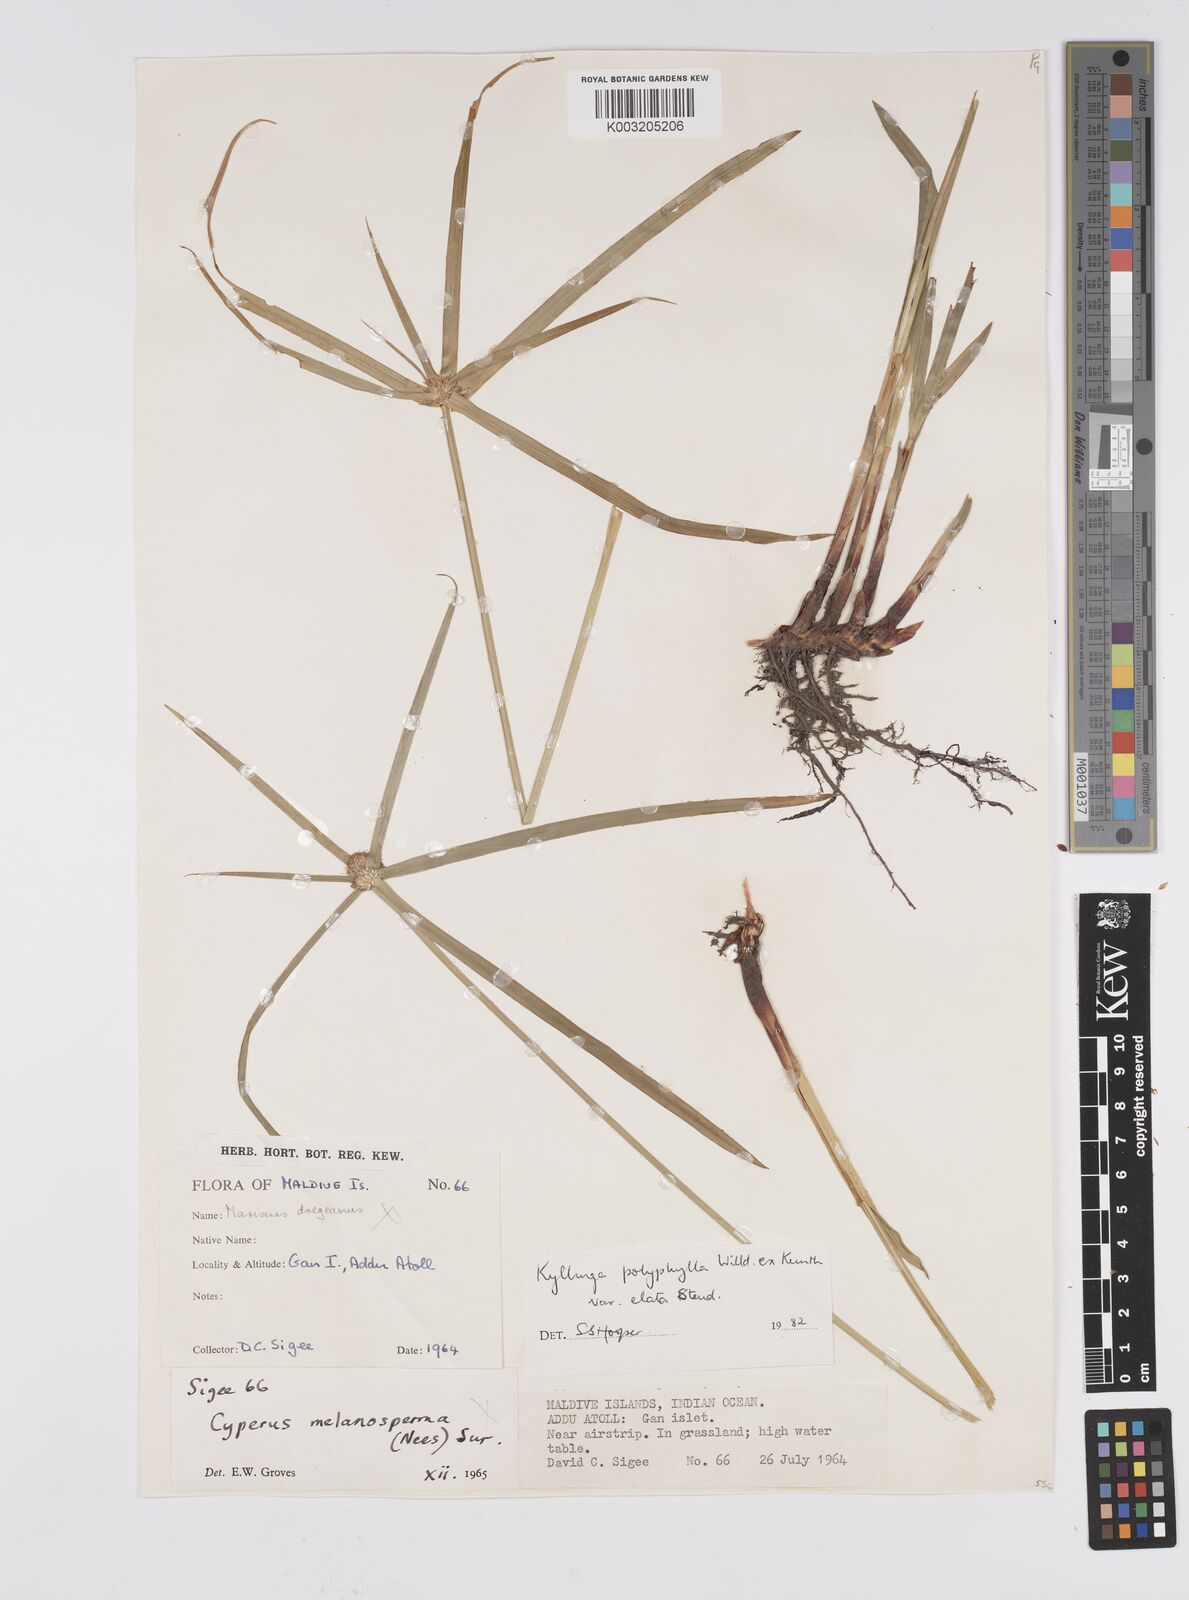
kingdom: Plantae
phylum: Tracheophyta
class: Liliopsida
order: Poales
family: Cyperaceae
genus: Cyperus
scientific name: Cyperus
